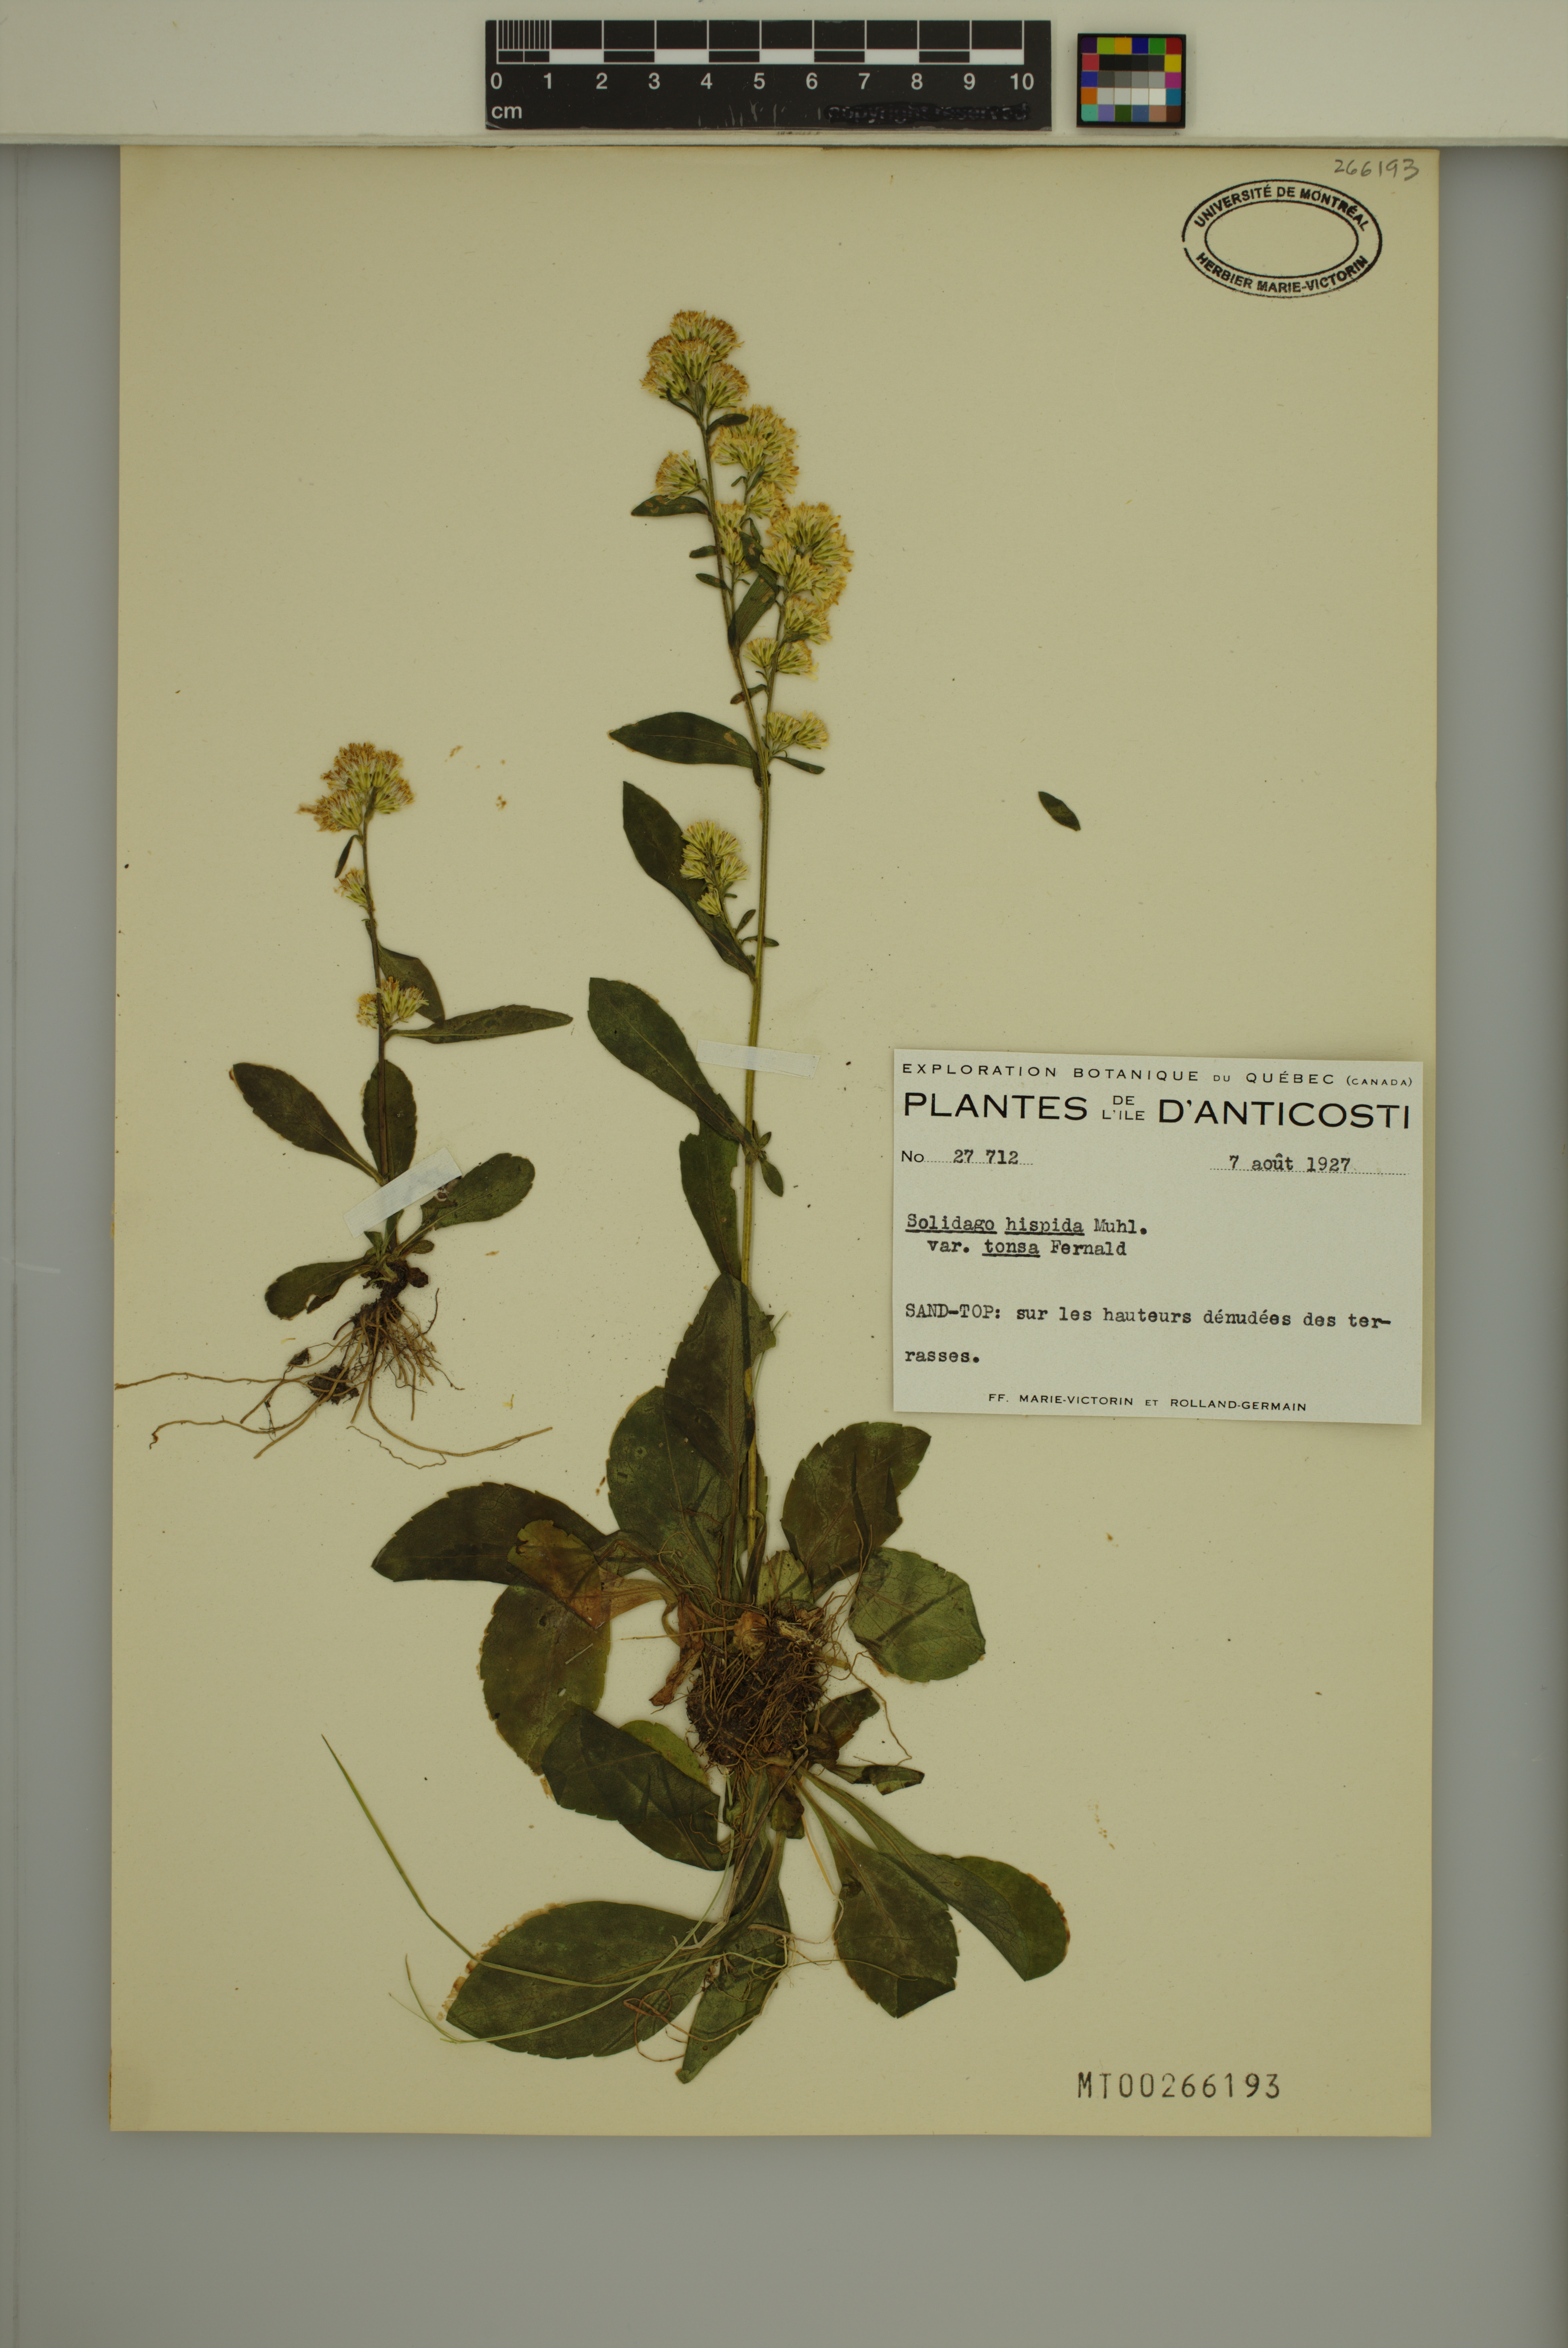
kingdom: Plantae
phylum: Tracheophyta
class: Magnoliopsida
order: Asterales
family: Asteraceae
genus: Solidago
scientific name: Solidago hispida
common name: Hairy goldenrod
